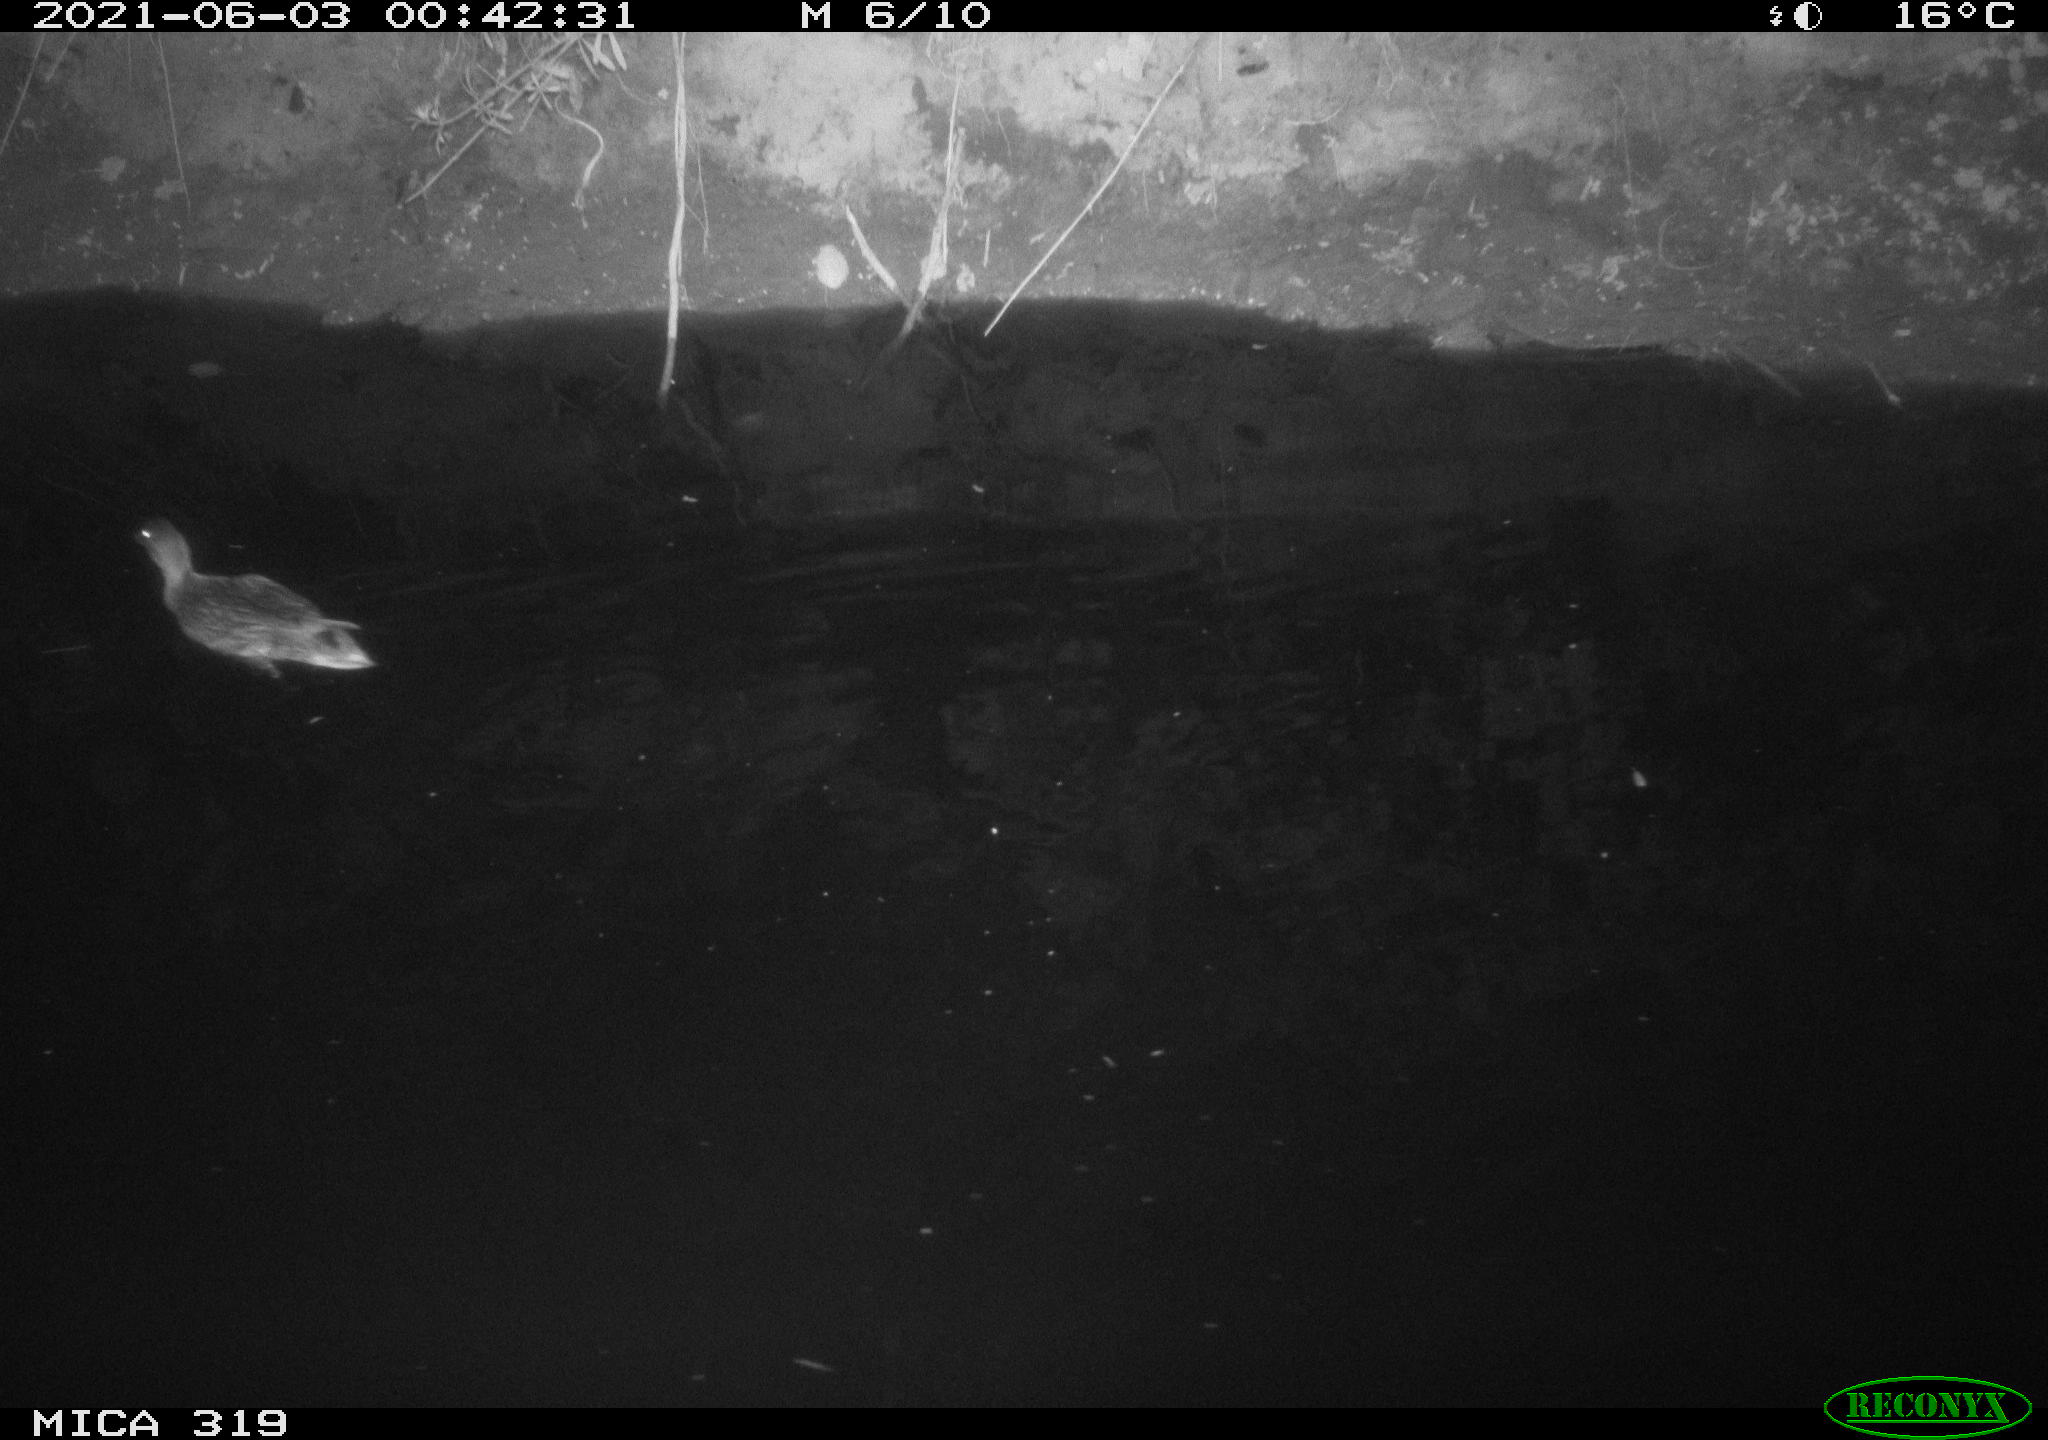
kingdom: Animalia
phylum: Chordata
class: Aves
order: Anseriformes
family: Anatidae
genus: Anas
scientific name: Anas platyrhynchos
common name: Mallard
